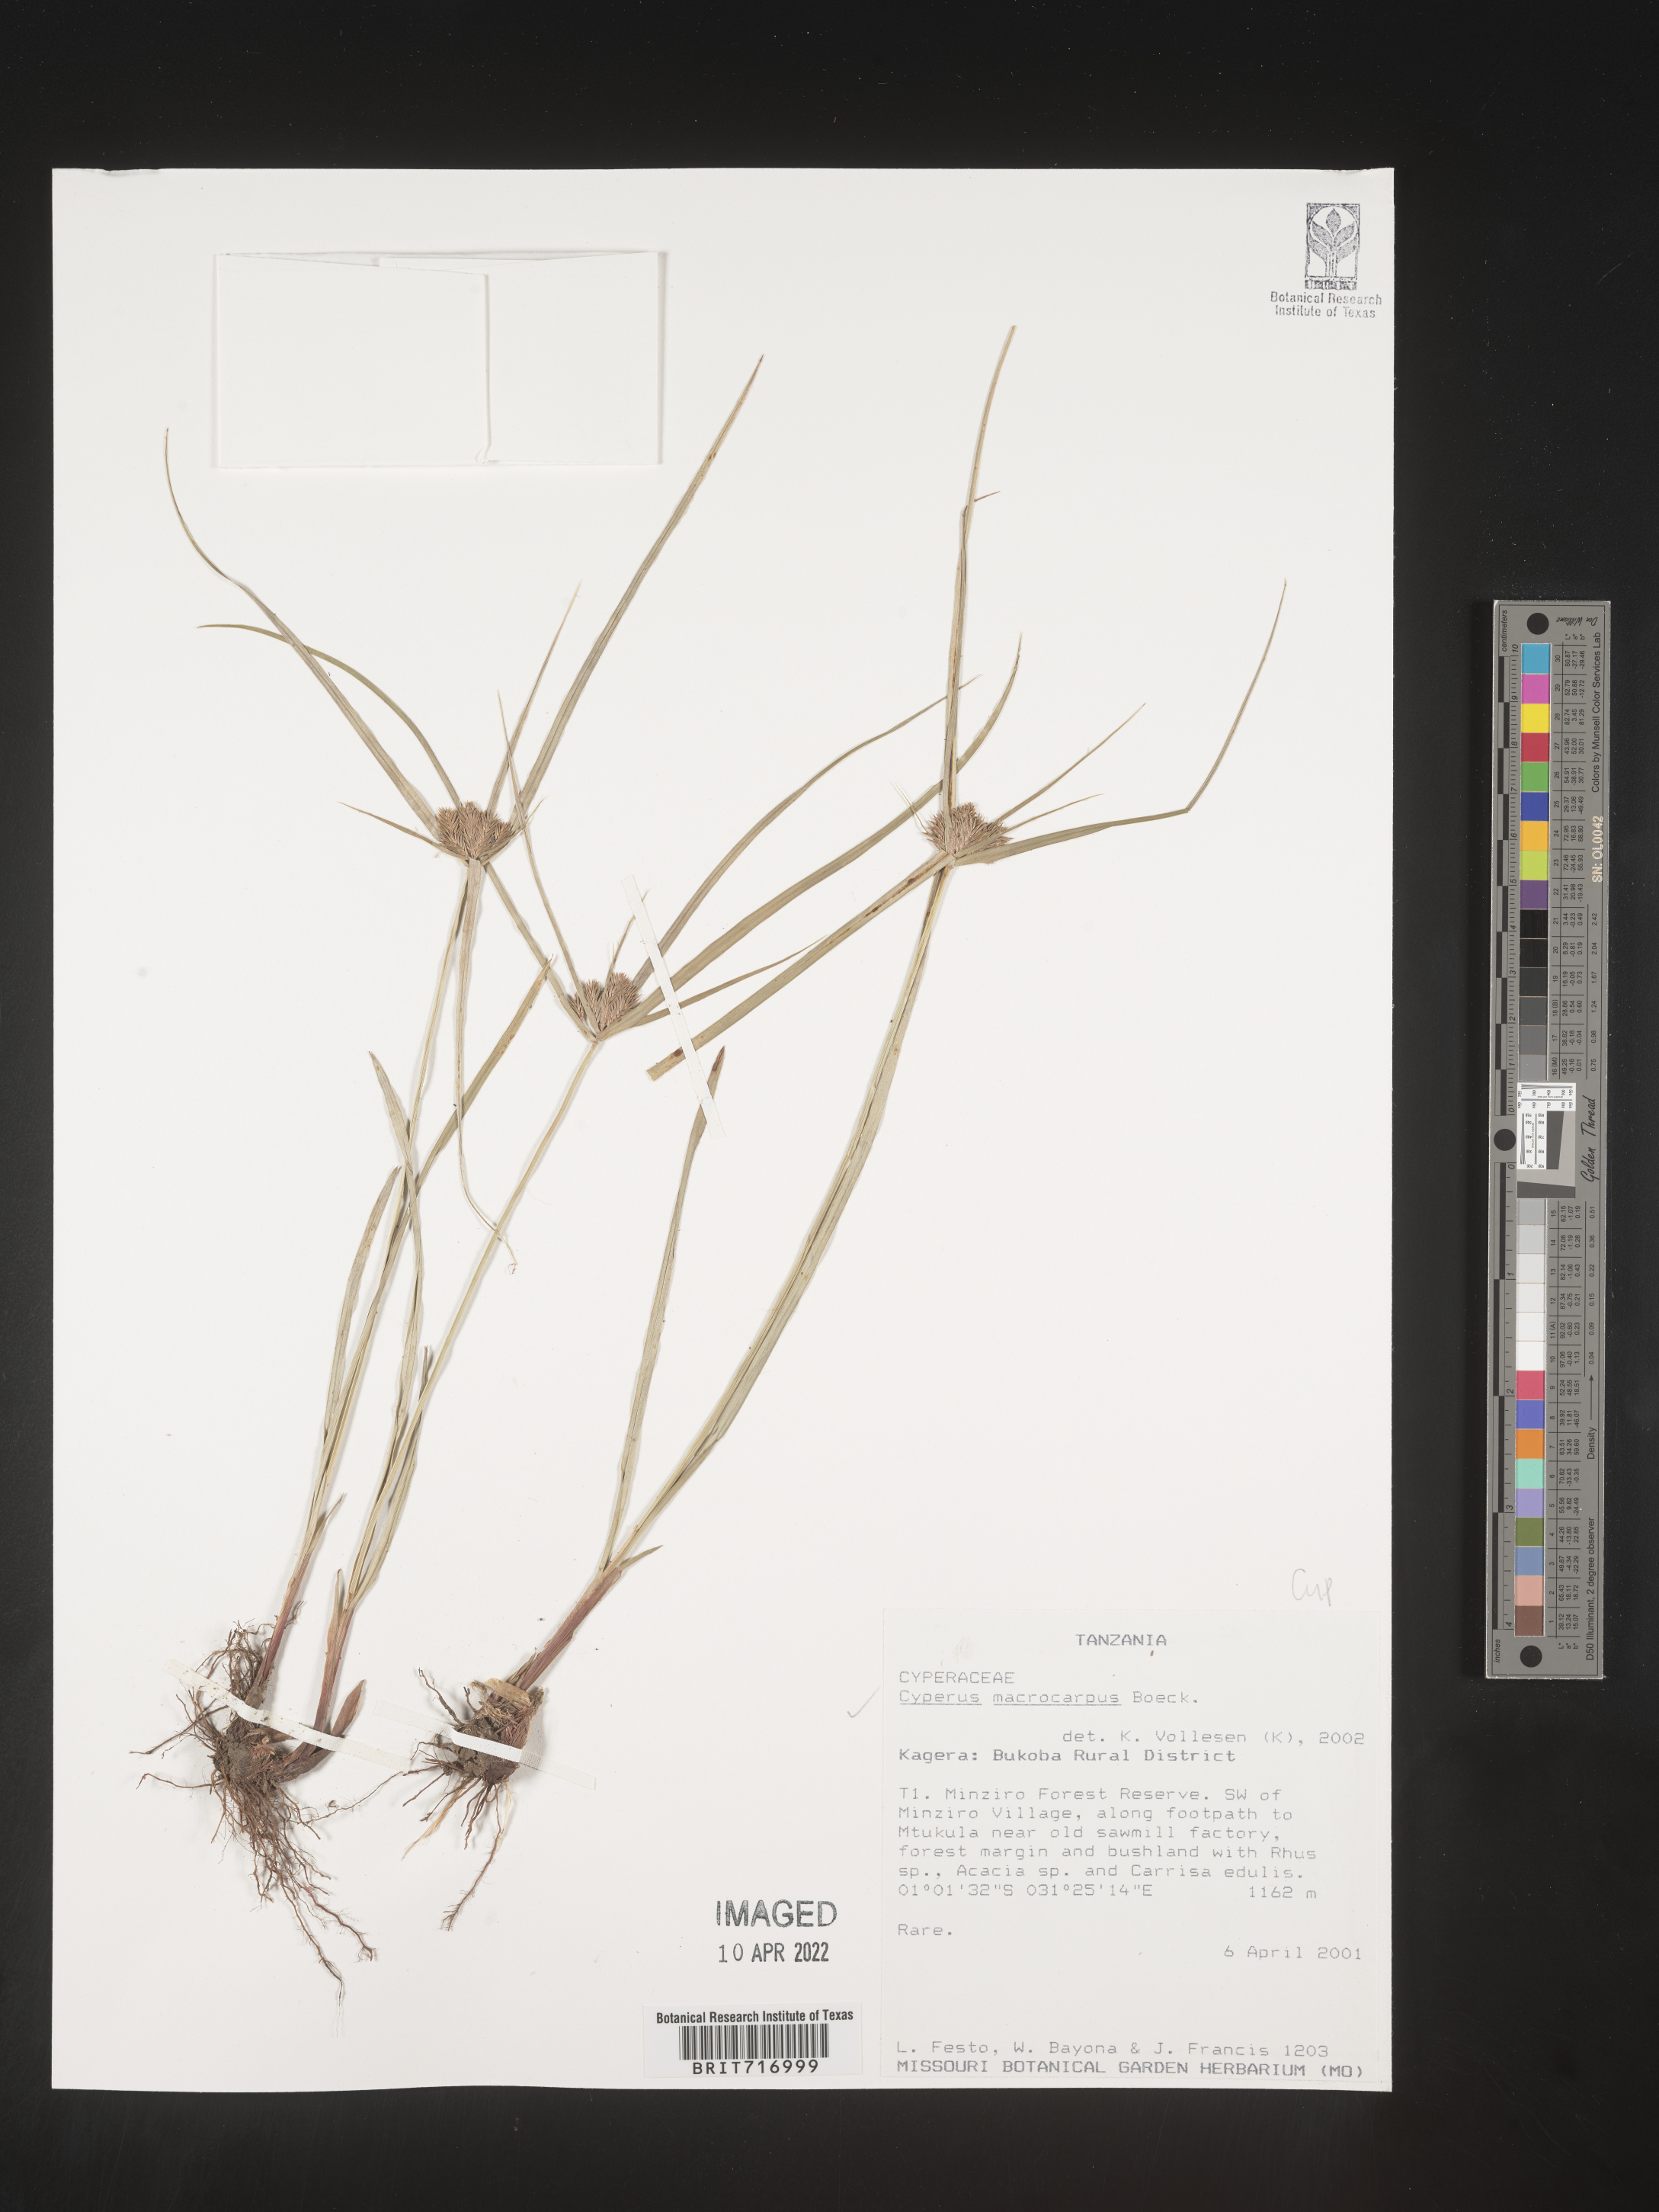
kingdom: Plantae
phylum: Tracheophyta
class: Liliopsida
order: Poales
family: Cyperaceae
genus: Cyperus
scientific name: Cyperus
